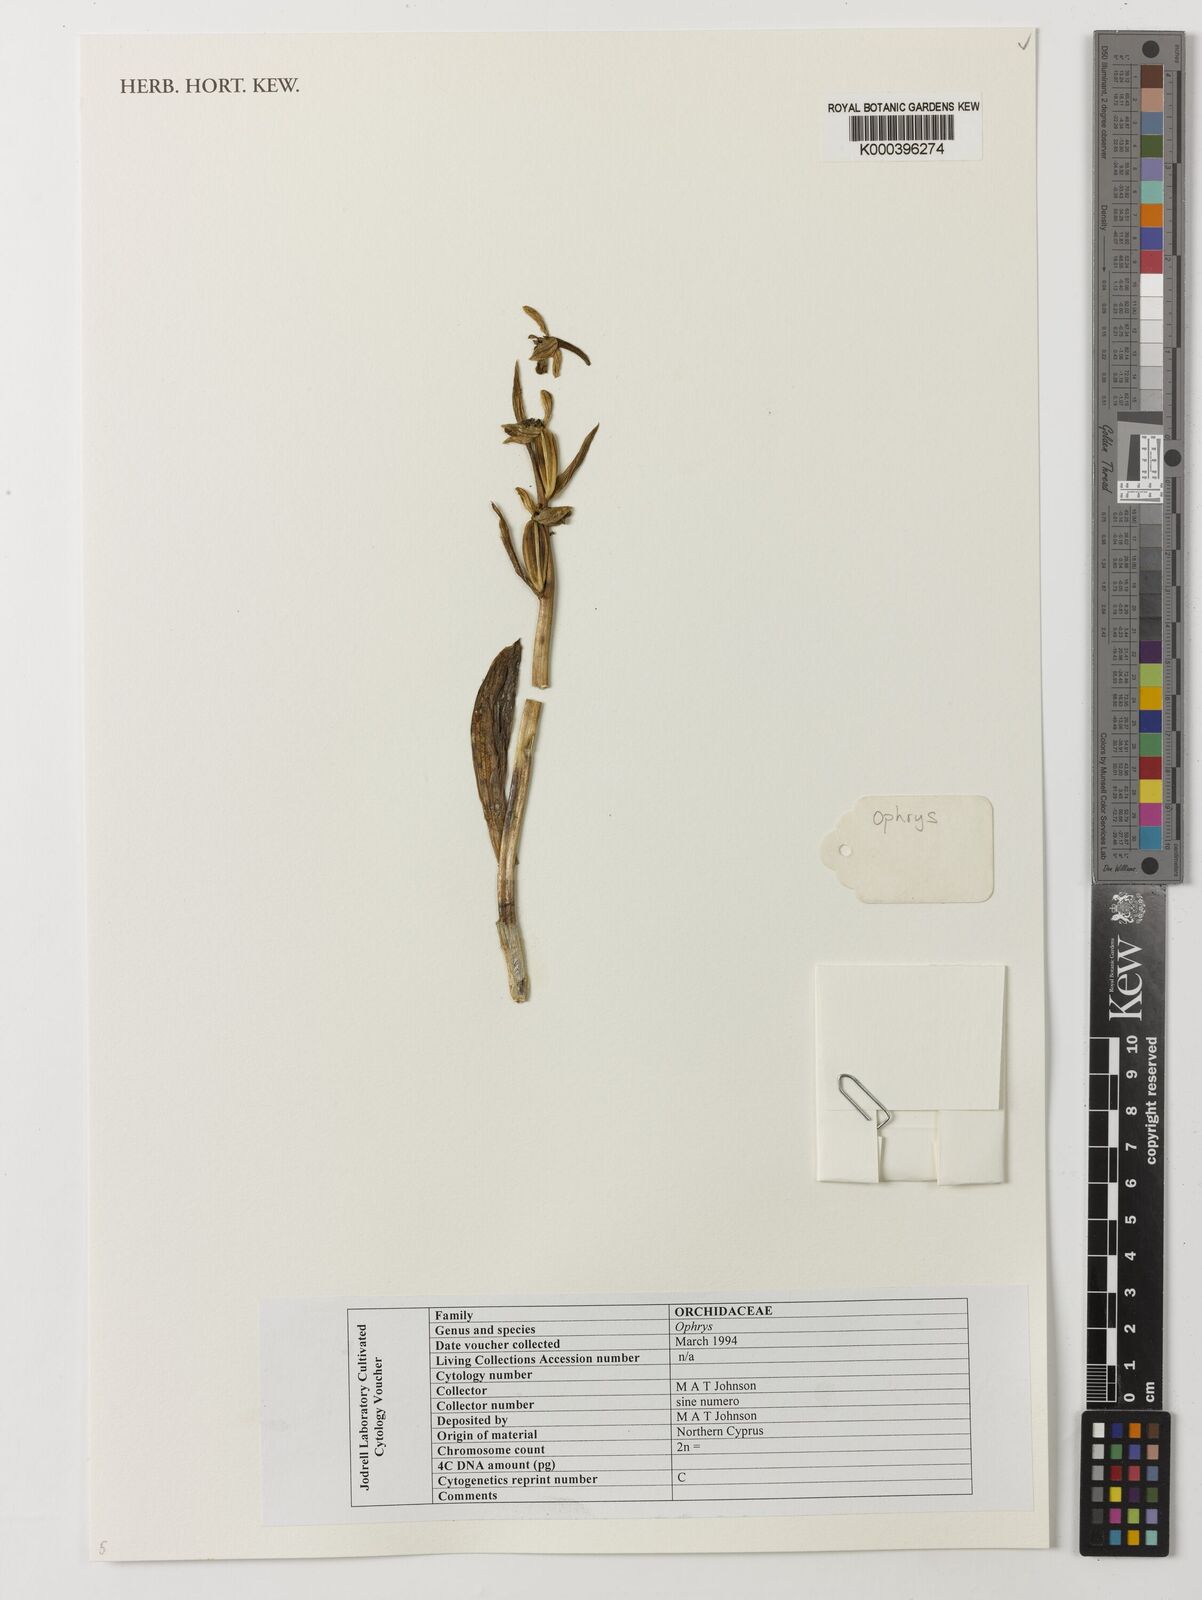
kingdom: Plantae
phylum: Tracheophyta
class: Liliopsida
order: Asparagales
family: Orchidaceae
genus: Ophrys
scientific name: Ophrys
